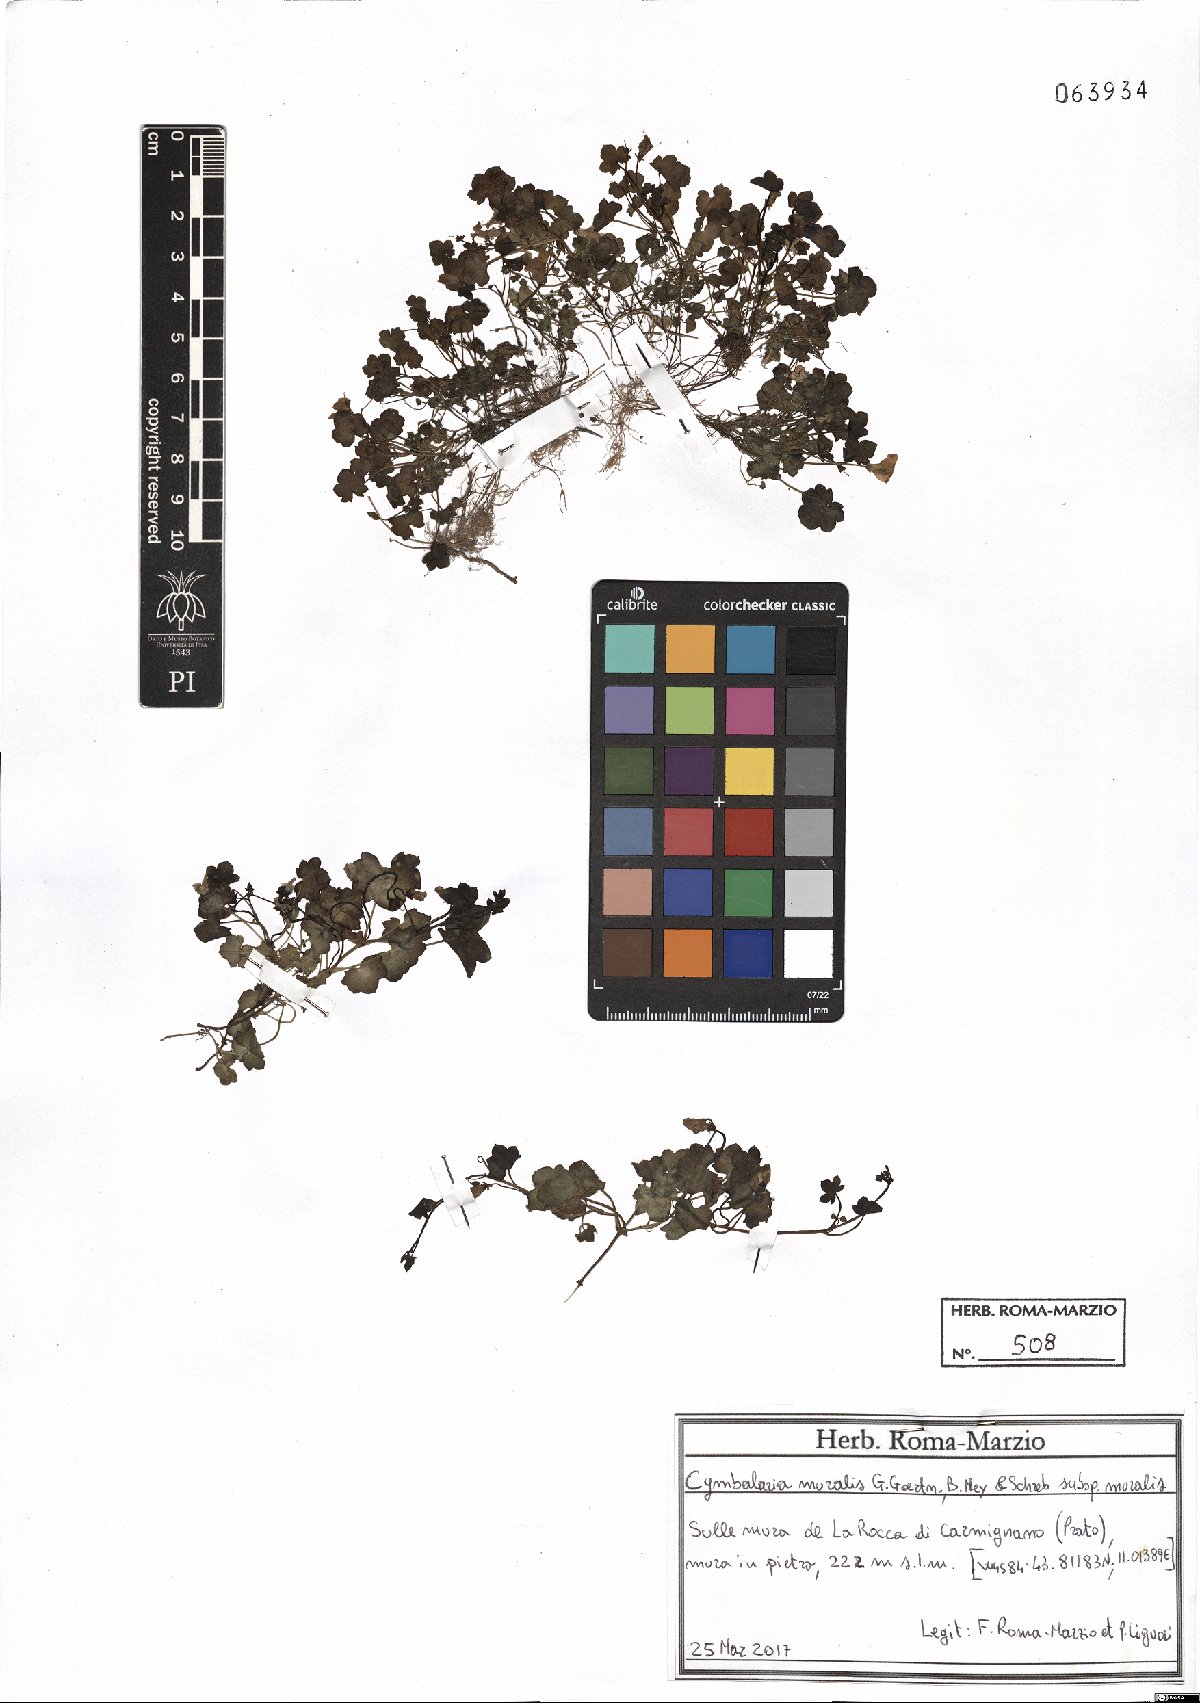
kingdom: Plantae
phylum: Tracheophyta
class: Magnoliopsida
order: Lamiales
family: Plantaginaceae
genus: Cymbalaria
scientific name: Cymbalaria muralis
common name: Ivy-leaved toadflax
